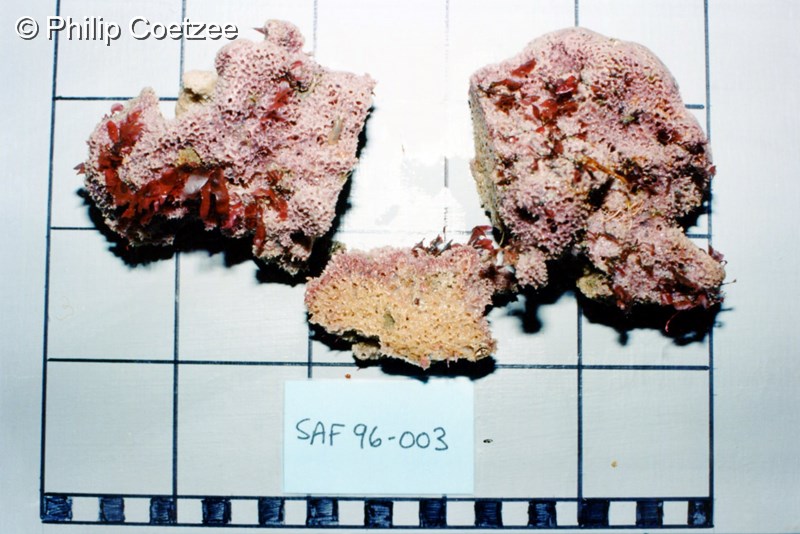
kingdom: Animalia
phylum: Porifera
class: Demospongiae
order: Bubarida
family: Dictyonellidae
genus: Acanthella
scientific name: Acanthella
